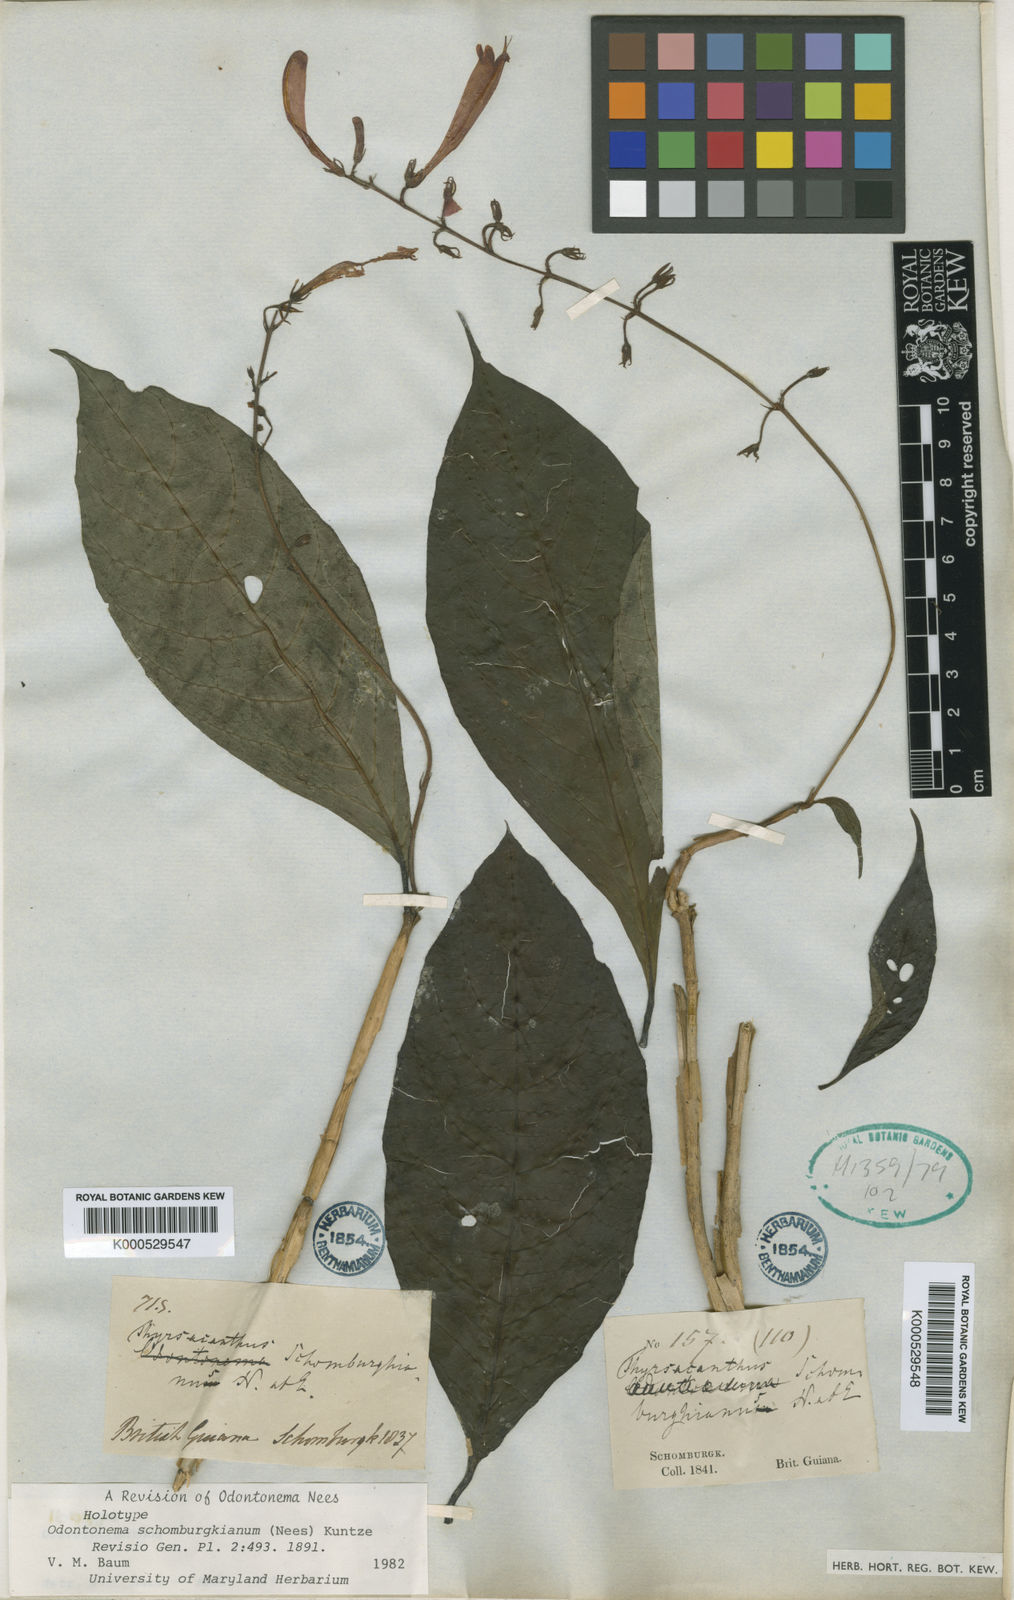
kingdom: Plantae
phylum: Tracheophyta
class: Magnoliopsida
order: Lamiales
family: Acanthaceae
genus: Odontonema
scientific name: Odontonema schomburgkianum
